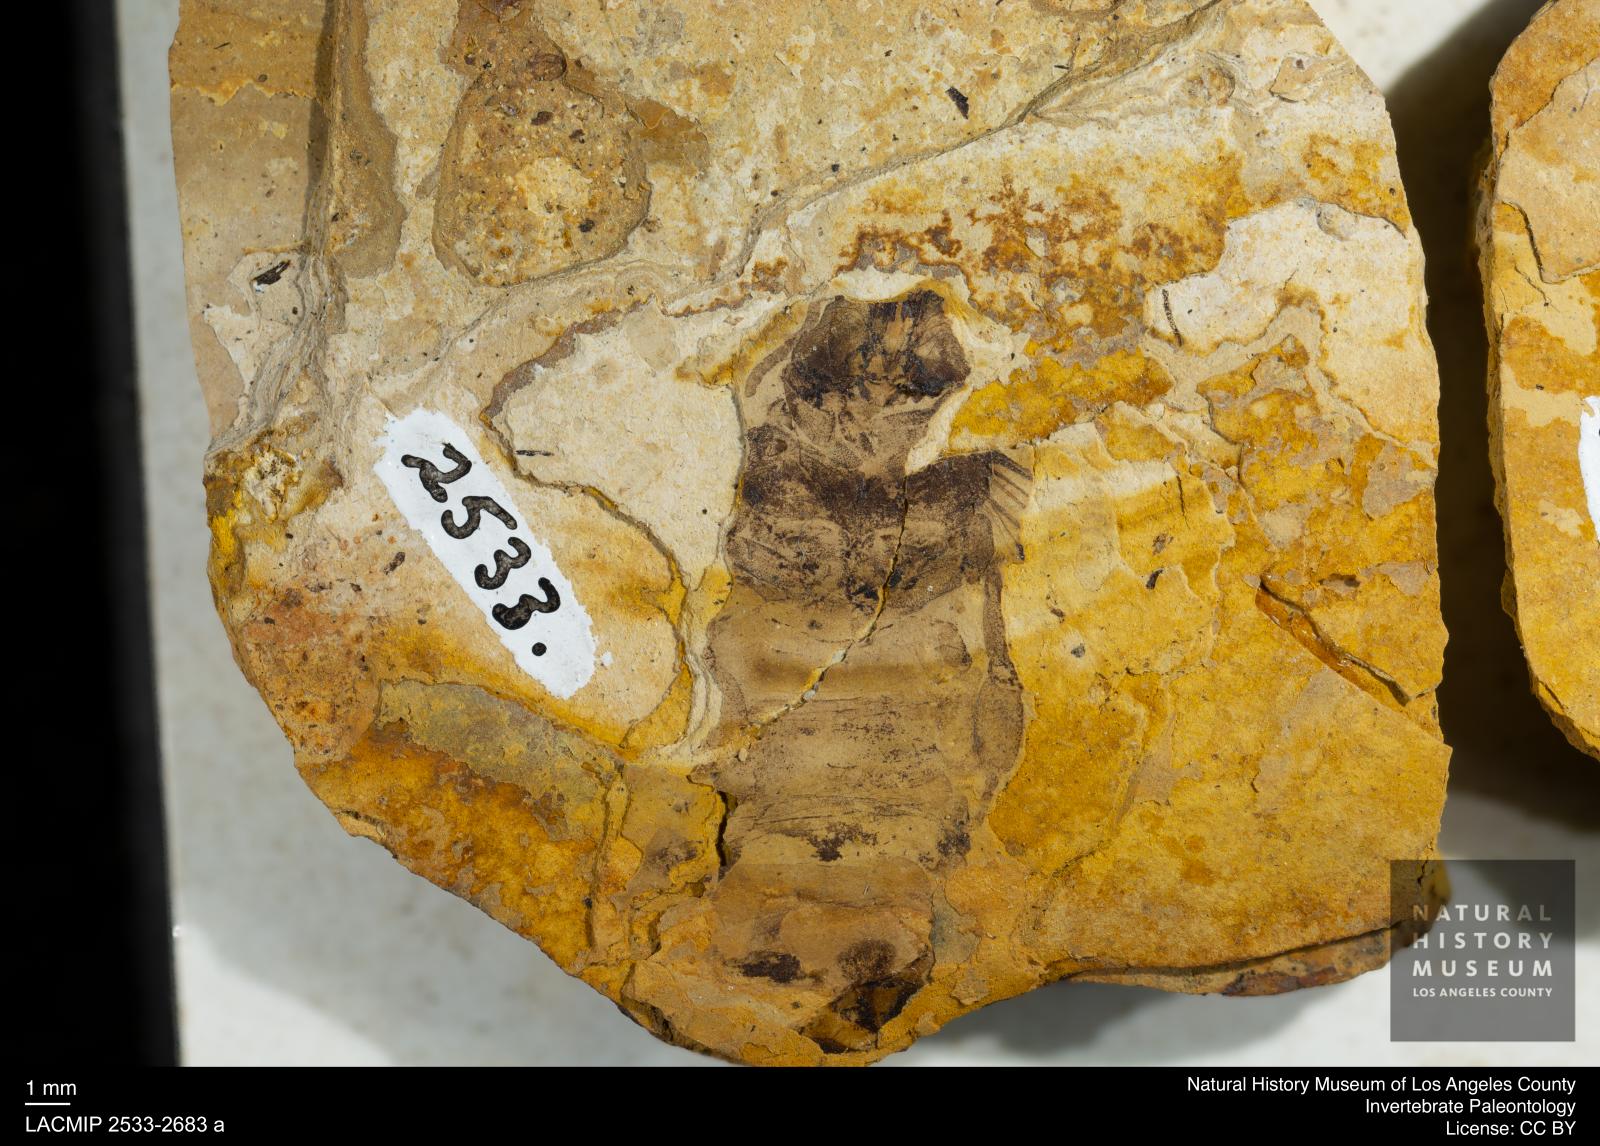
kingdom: Animalia
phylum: Arthropoda
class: Insecta
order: Hymenoptera
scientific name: Hymenoptera
